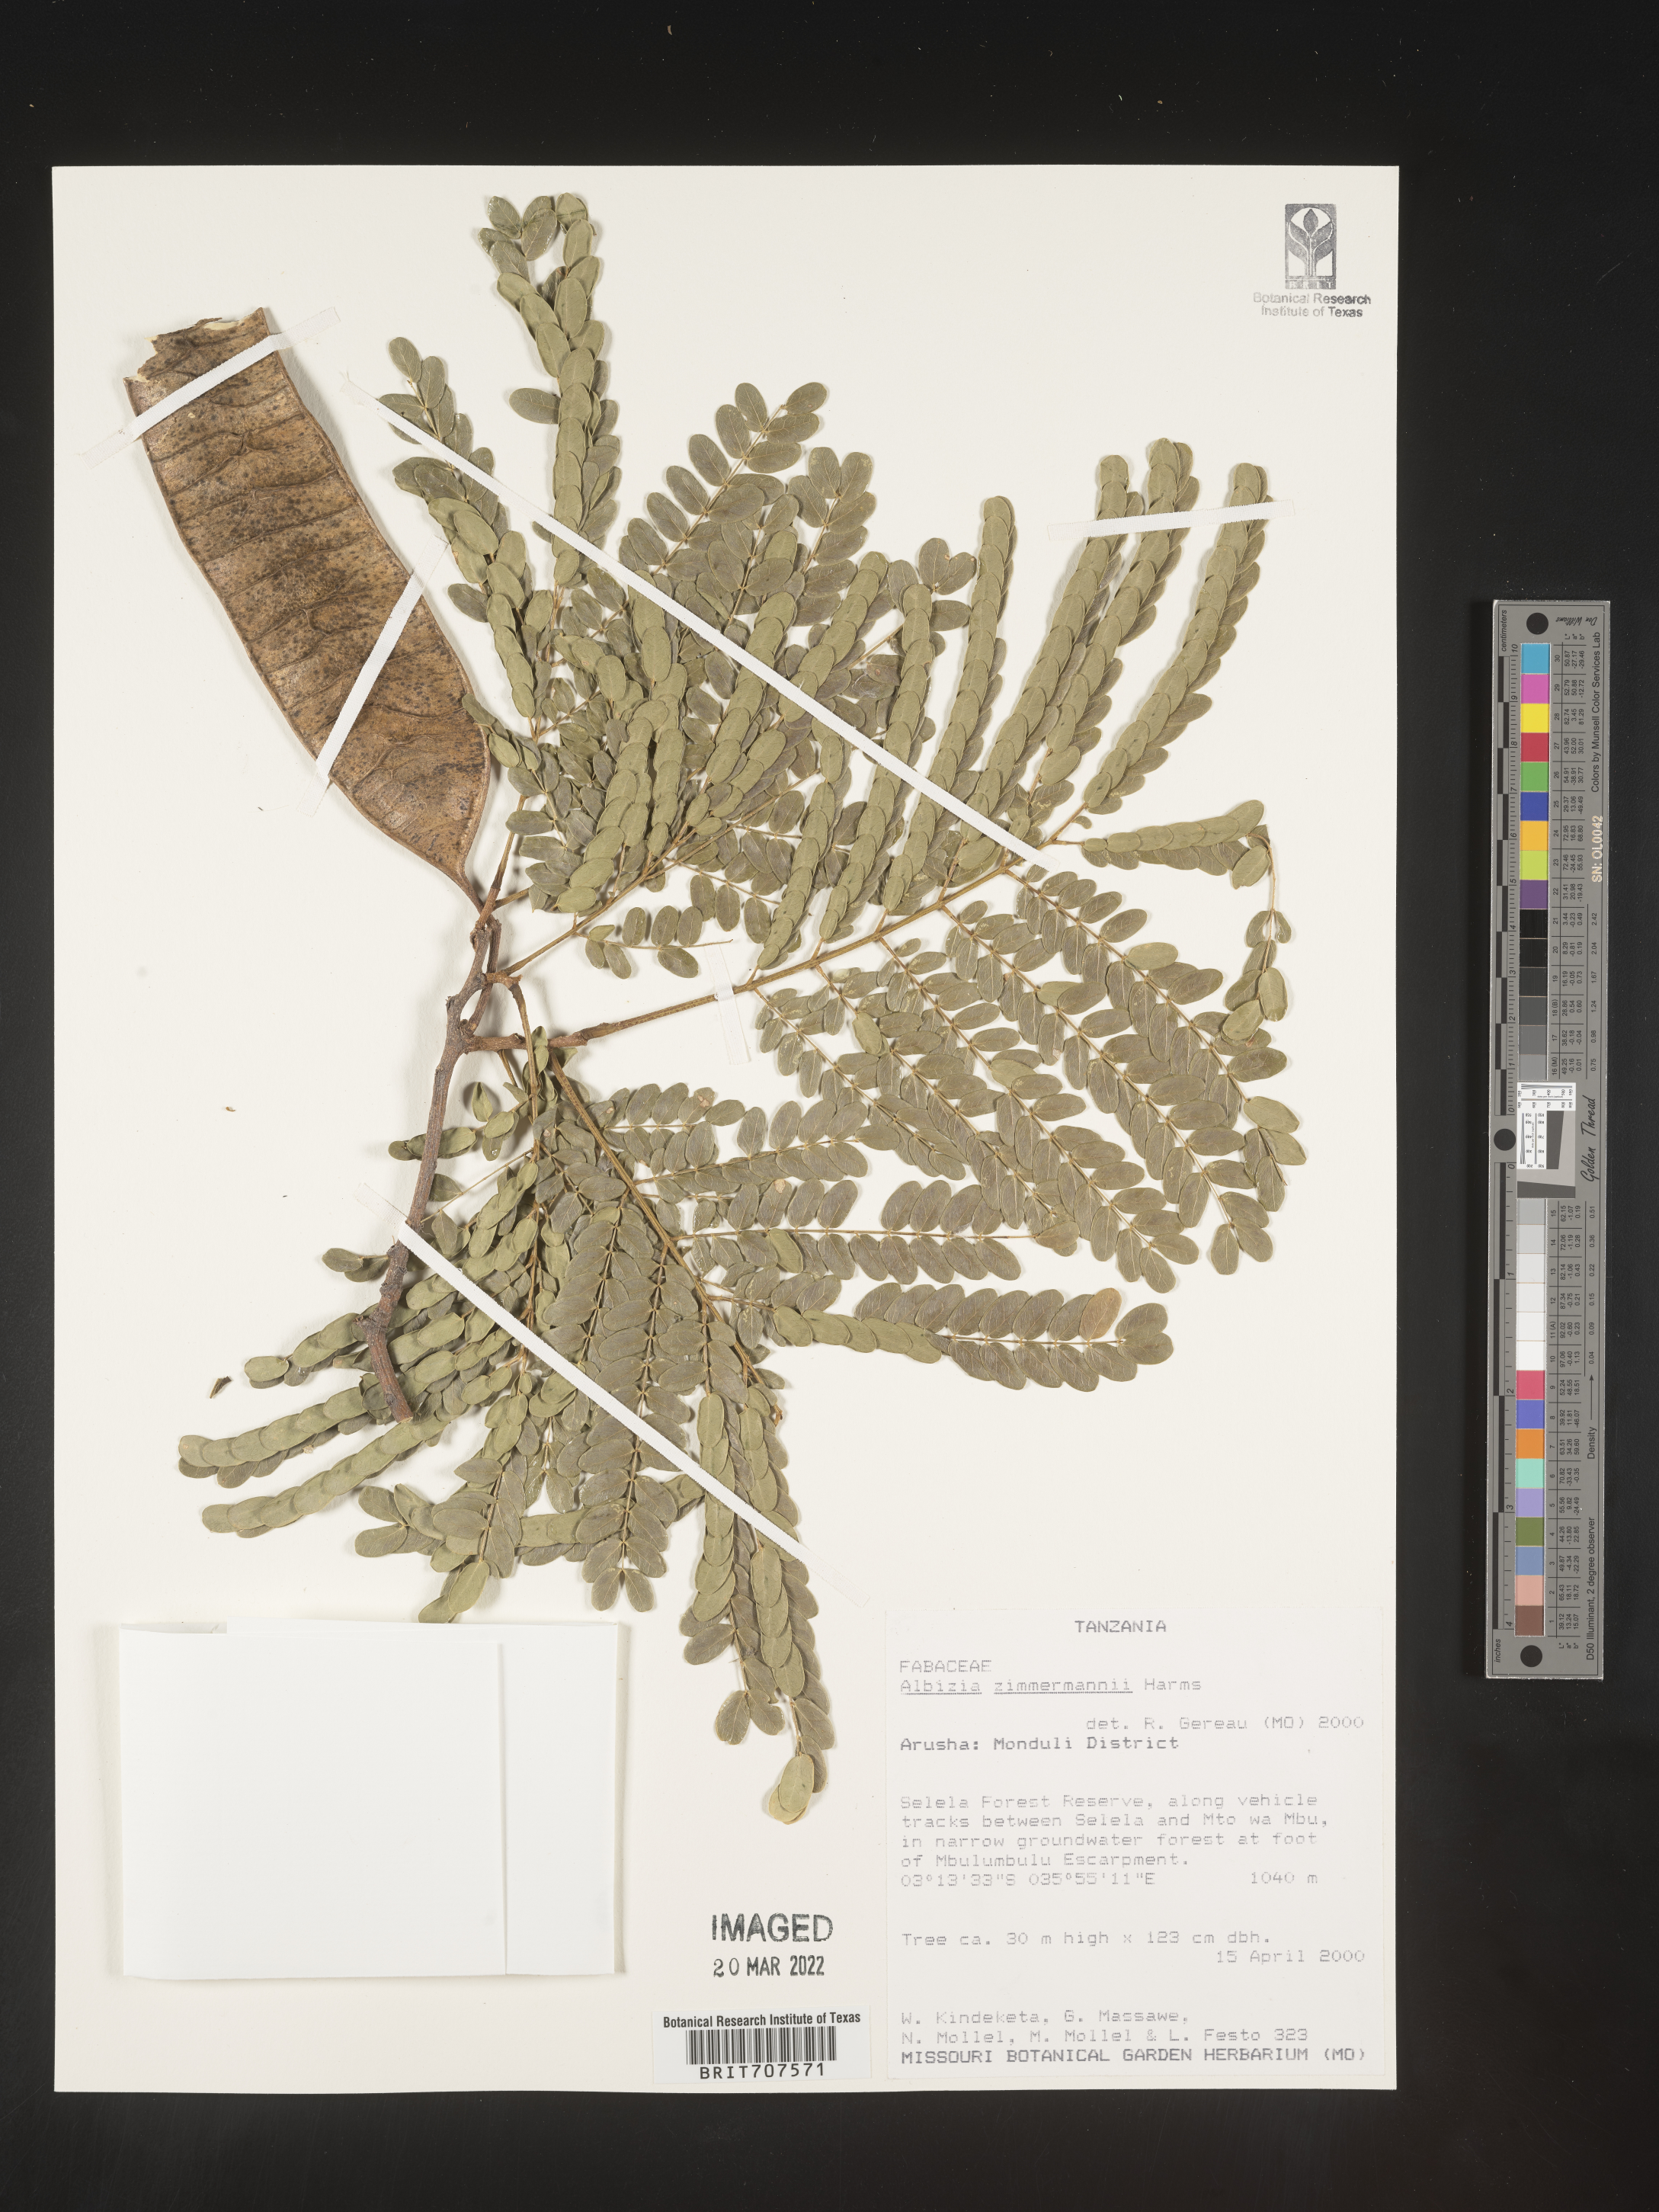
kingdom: Plantae
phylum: Tracheophyta
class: Magnoliopsida
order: Fabales
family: Fabaceae
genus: Albizia
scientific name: Albizia
